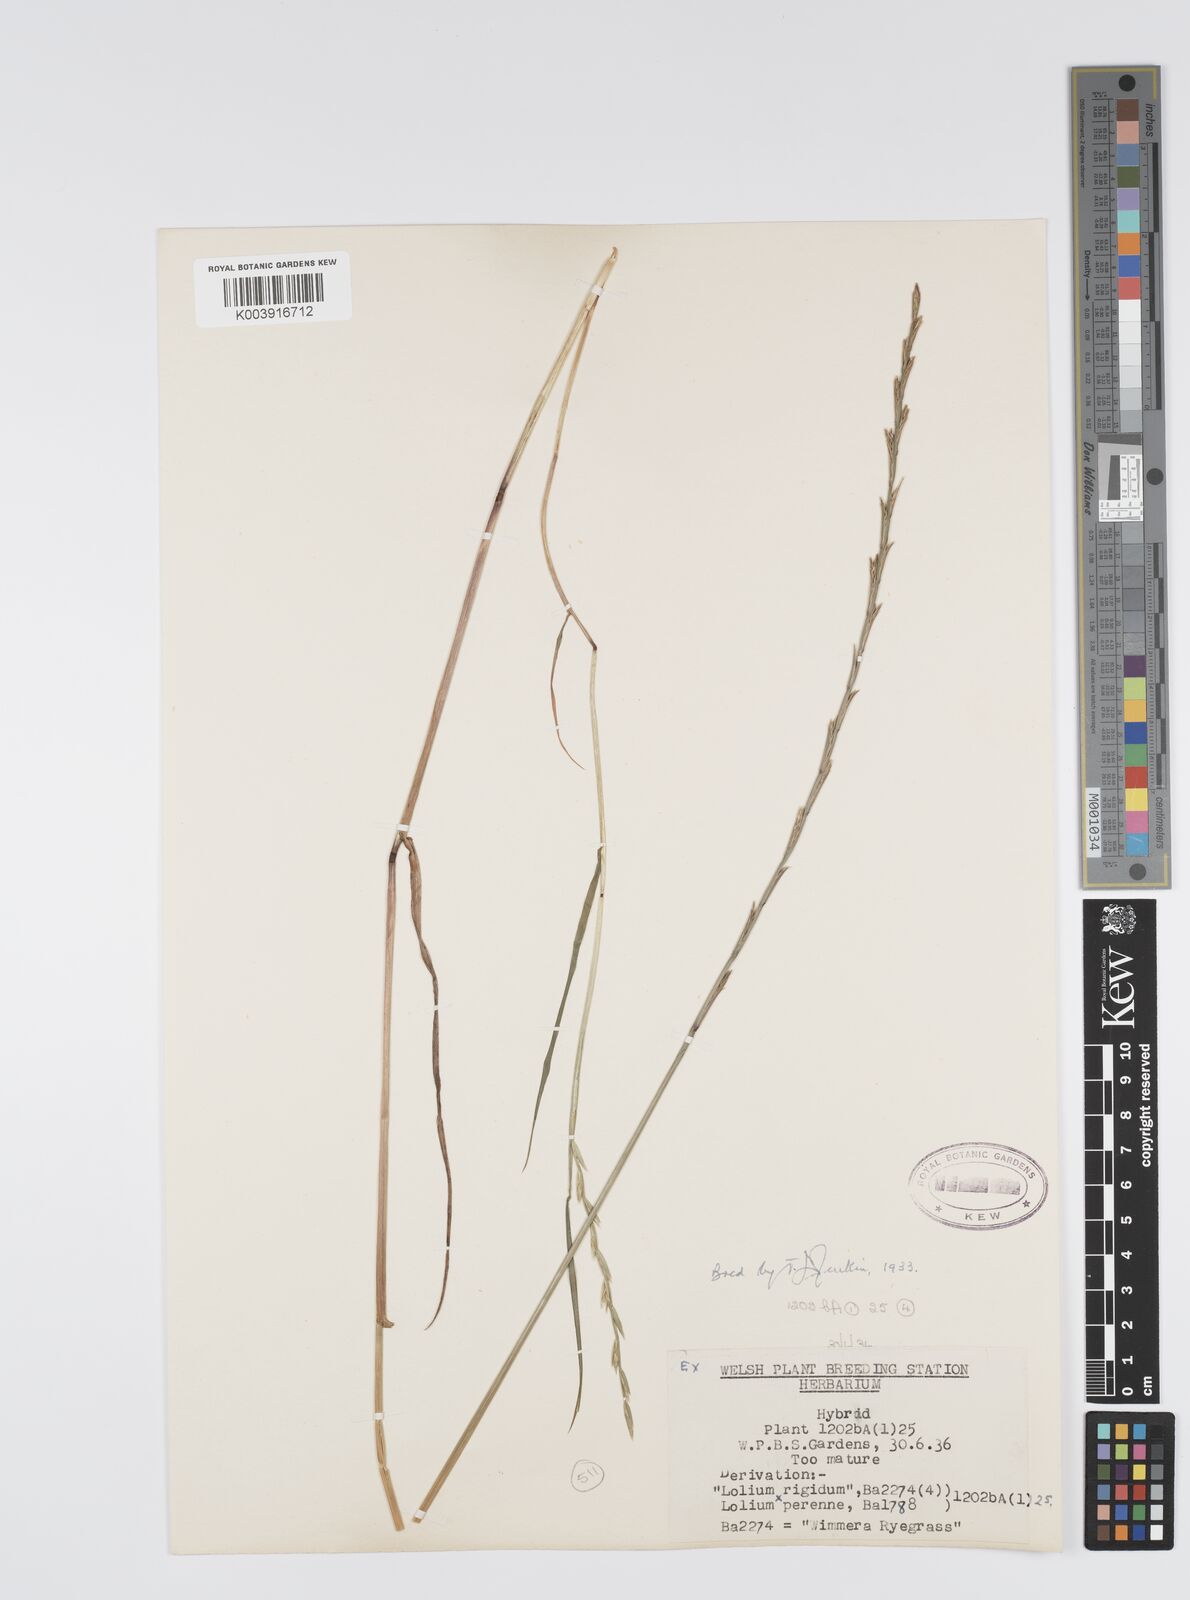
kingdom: Plantae
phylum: Tracheophyta
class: Liliopsida
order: Poales
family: Poaceae
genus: Lolium
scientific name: Lolium perenne
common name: Perennial ryegrass
